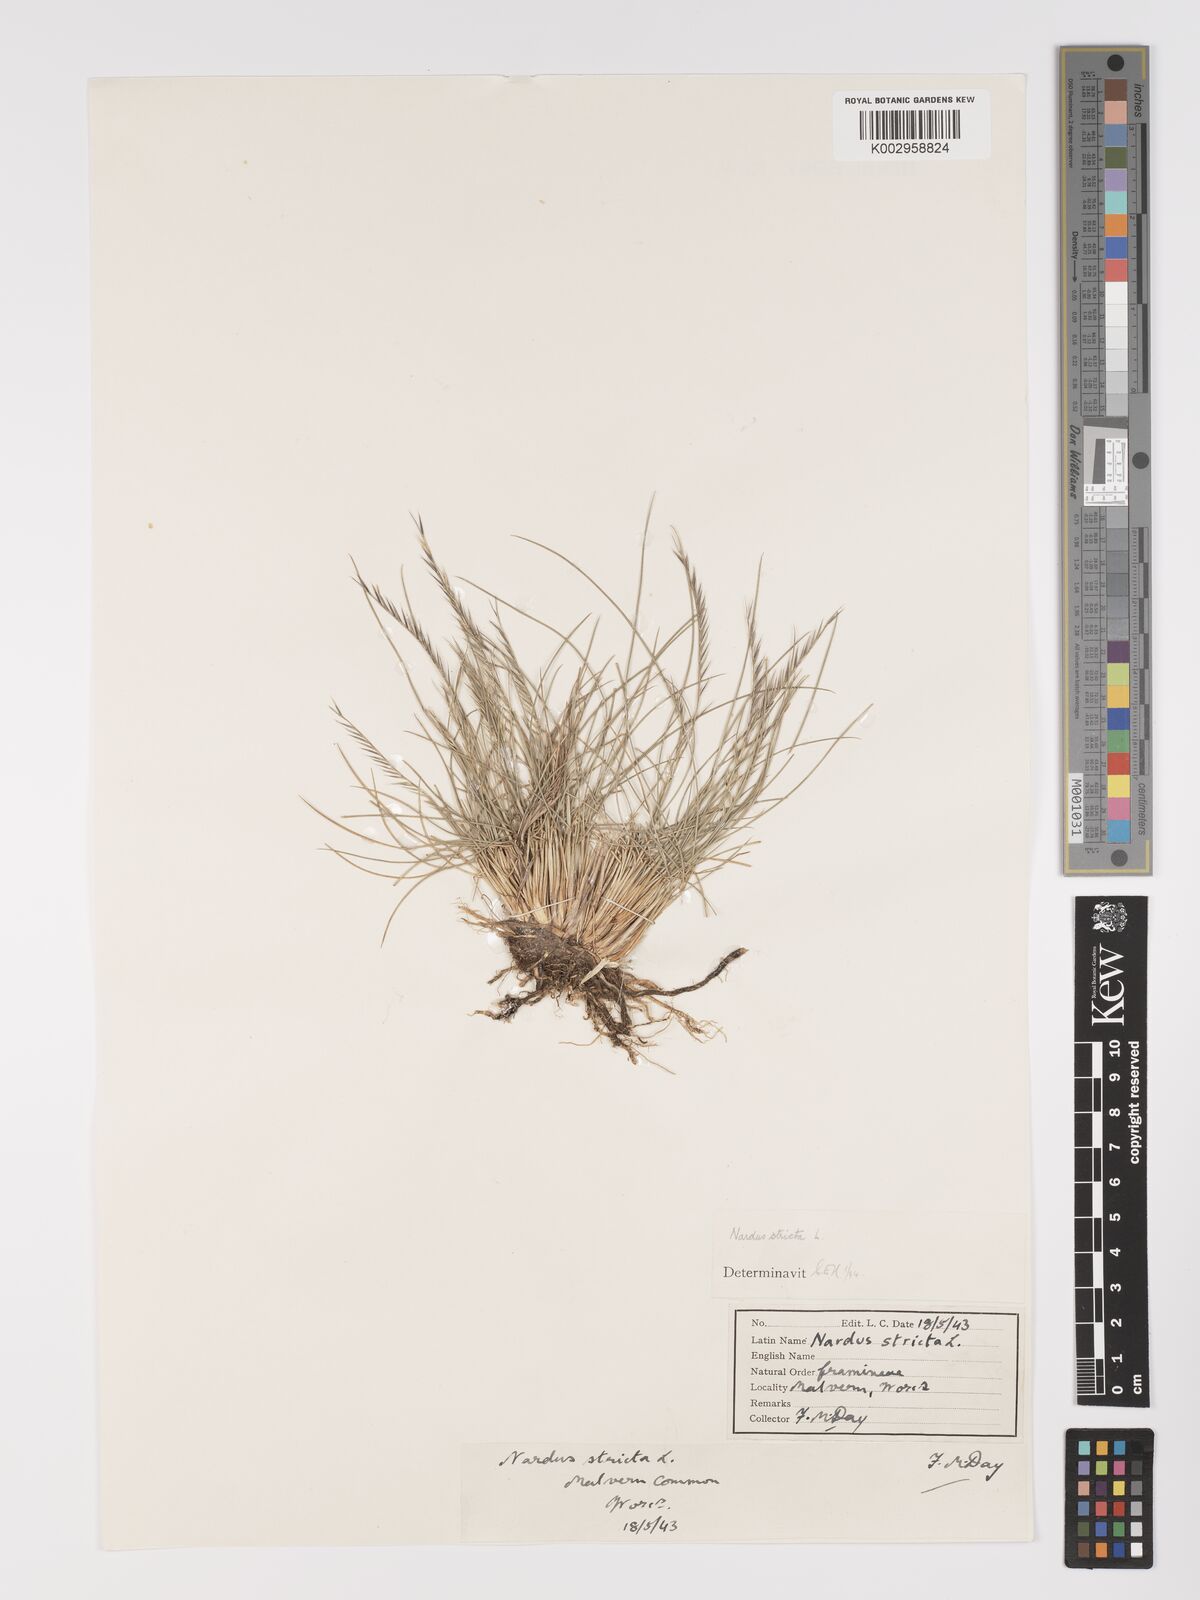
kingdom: Plantae
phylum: Tracheophyta
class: Liliopsida
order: Poales
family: Poaceae
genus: Nardus
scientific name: Nardus stricta
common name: Mat-grass
